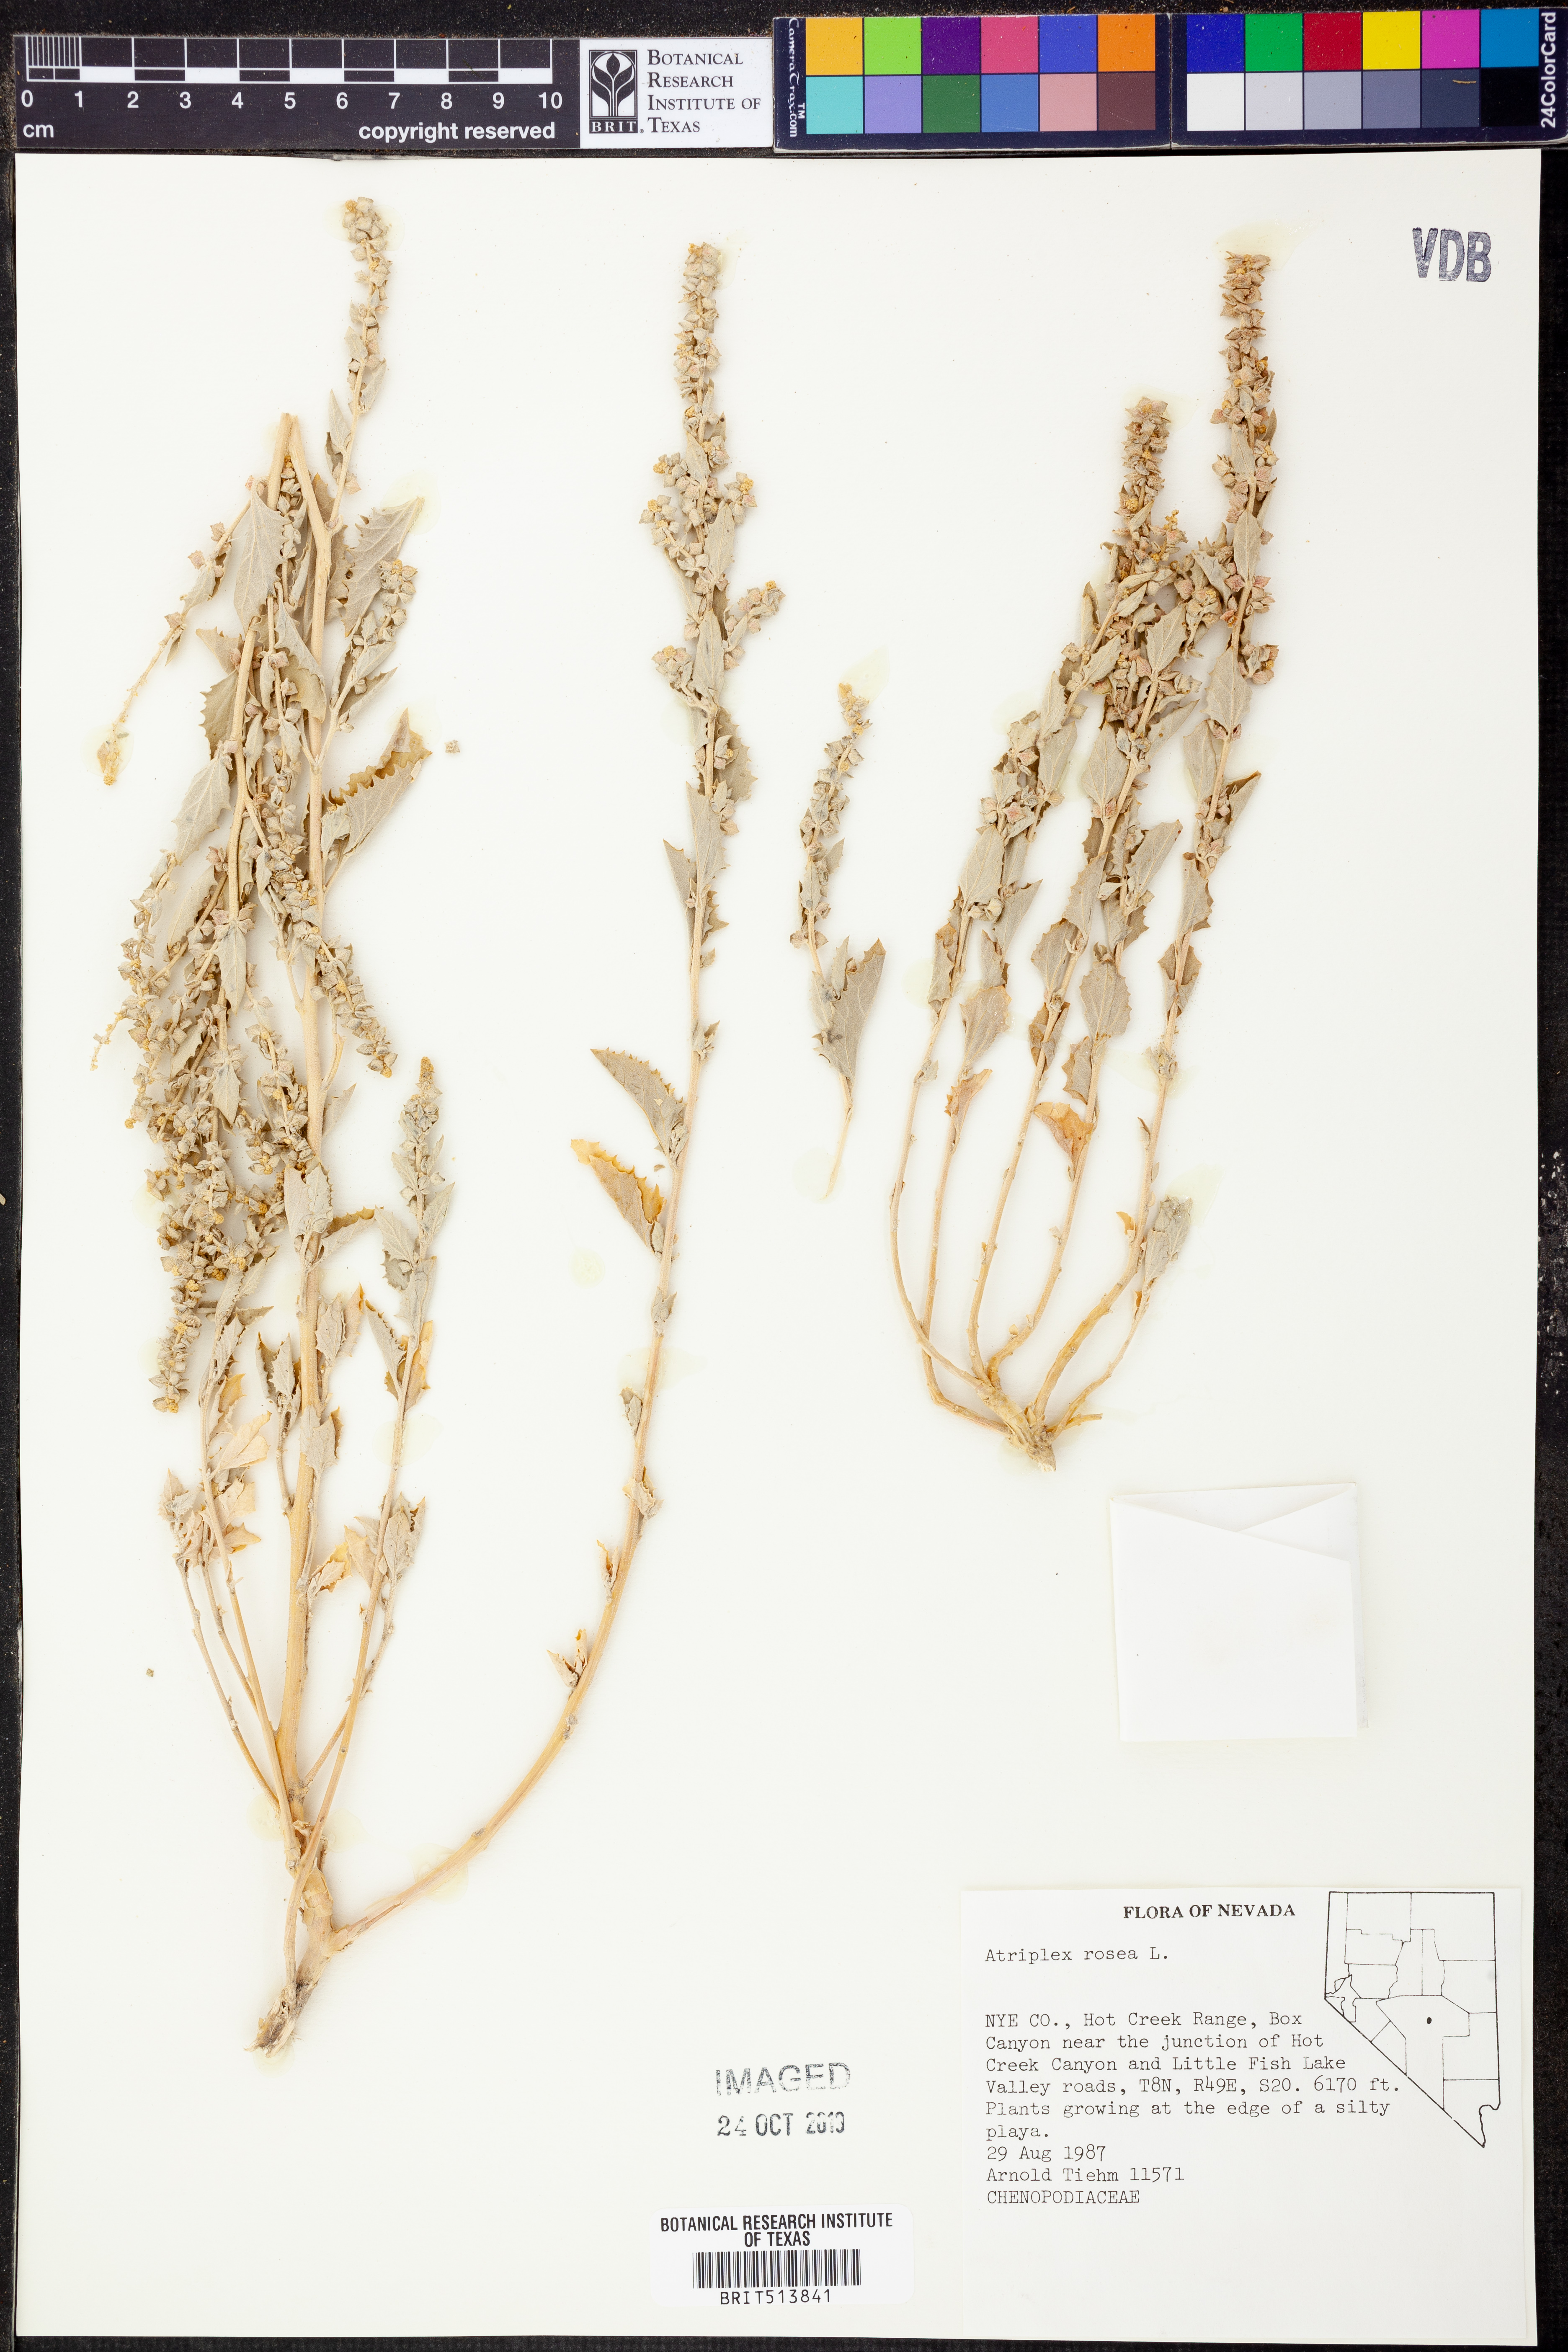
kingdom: Plantae
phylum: Tracheophyta
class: Magnoliopsida
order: Caryophyllales
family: Amaranthaceae
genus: Atriplex
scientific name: Atriplex rosea
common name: Tumbling saltweed
